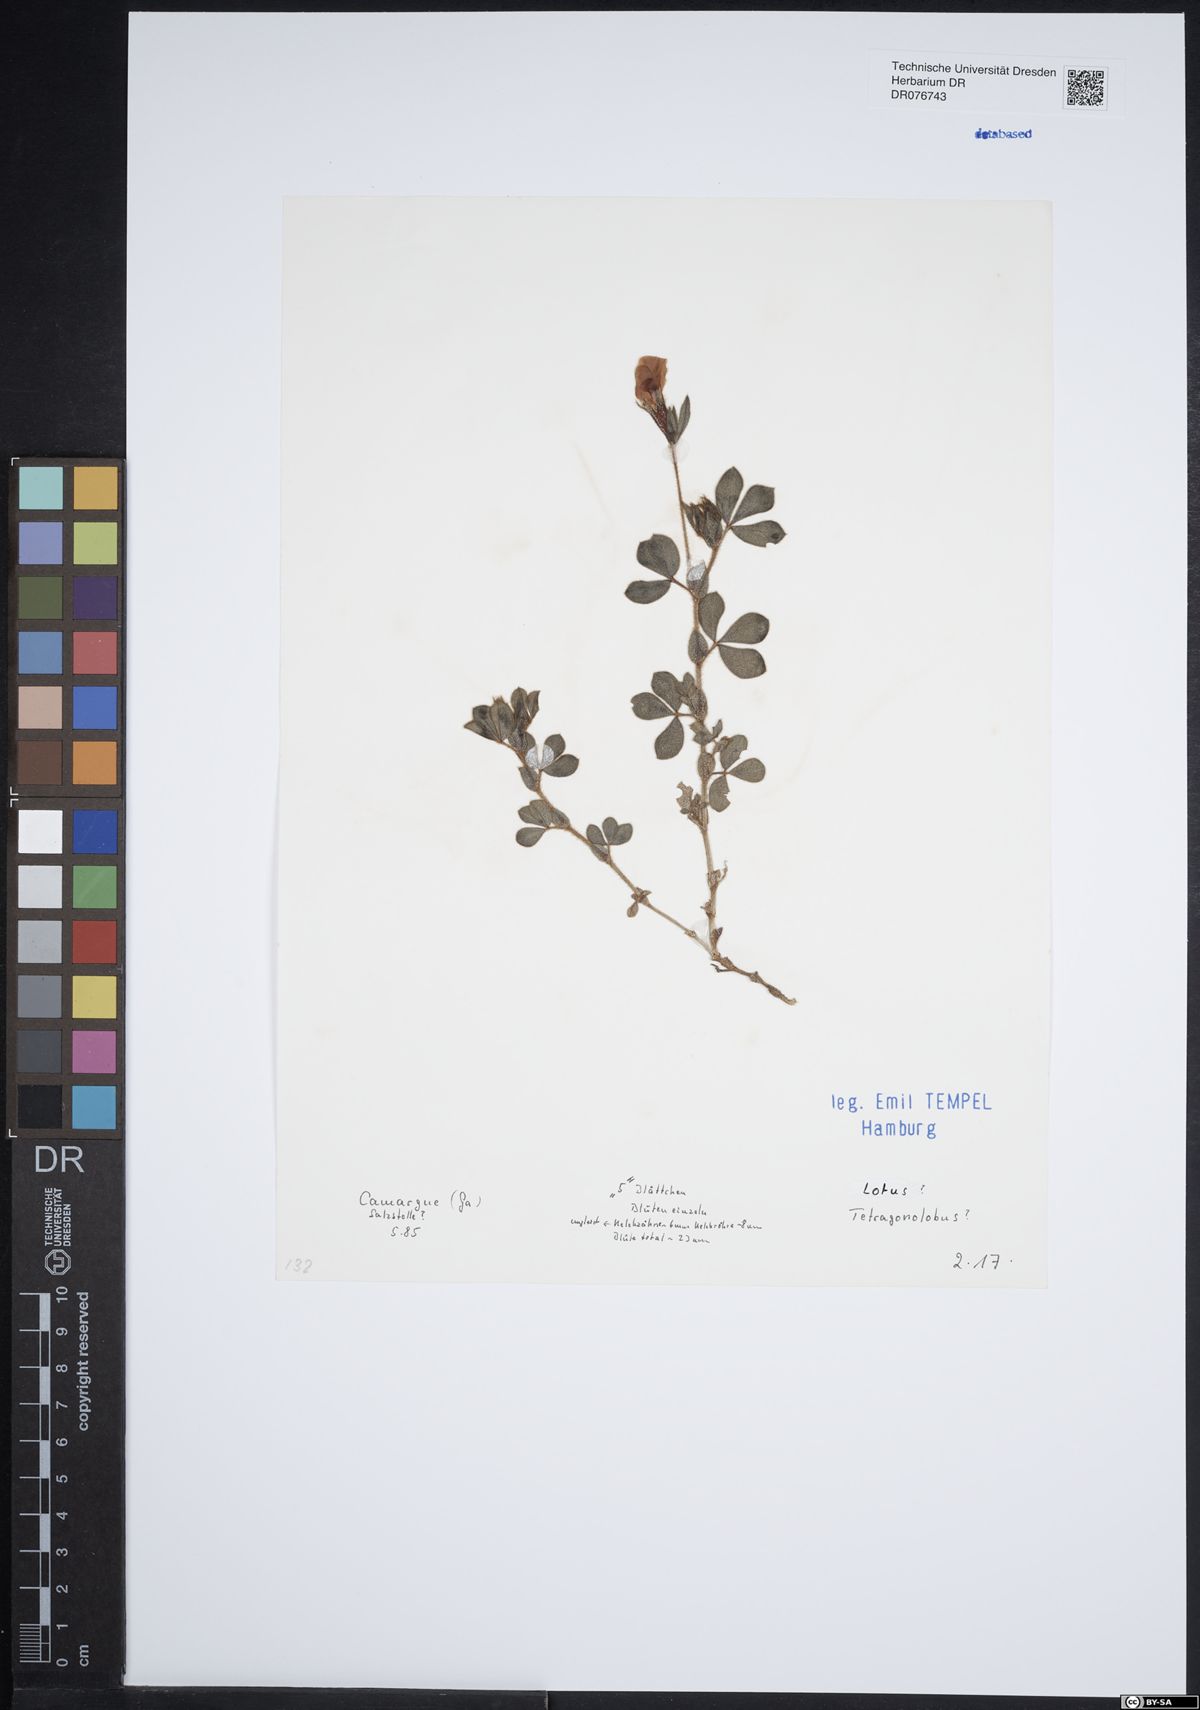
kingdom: Plantae
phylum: Tracheophyta
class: Magnoliopsida
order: Fabales
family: Fabaceae
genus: Lotus
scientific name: Lotus tetragonolobus
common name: Asparagus-pea
